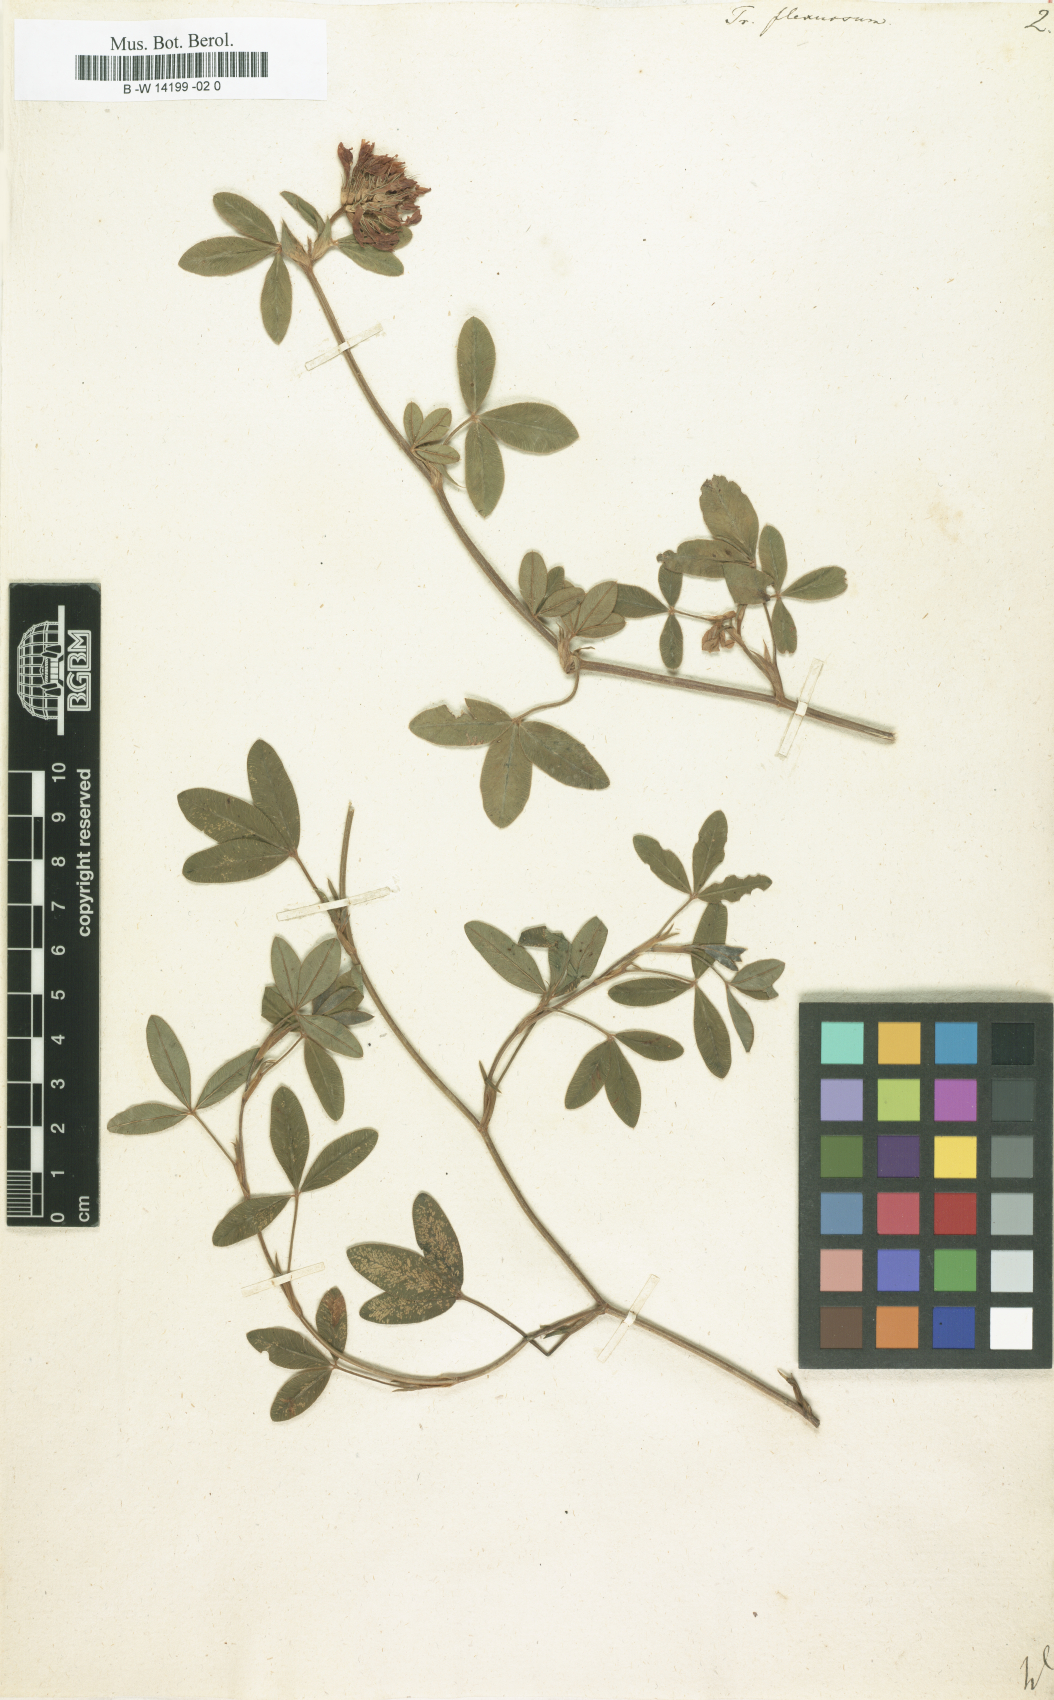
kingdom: Plantae
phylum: Tracheophyta
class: Magnoliopsida
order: Fabales
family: Fabaceae
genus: Trifolium
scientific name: Trifolium medium
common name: Zigzag clover
